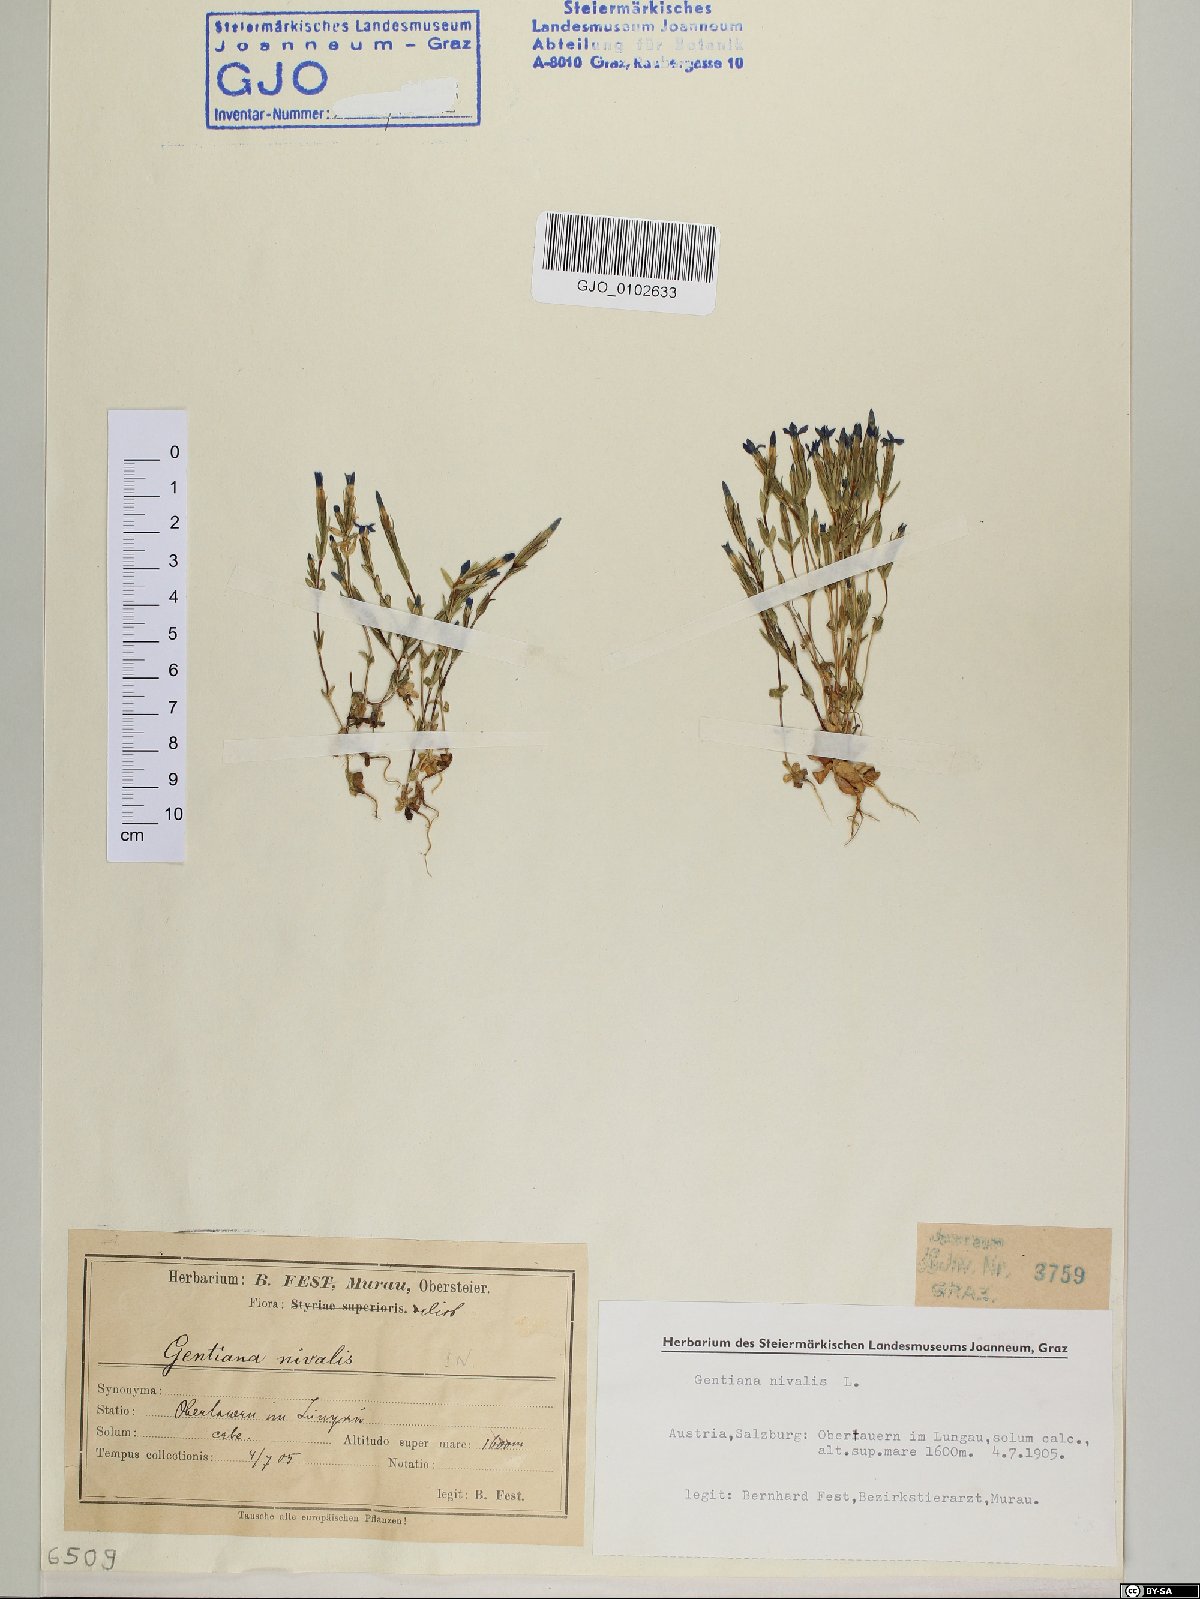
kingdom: Plantae
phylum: Tracheophyta
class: Magnoliopsida
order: Gentianales
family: Gentianaceae
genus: Gentiana
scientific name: Gentiana nivalis
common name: Alpine gentian
